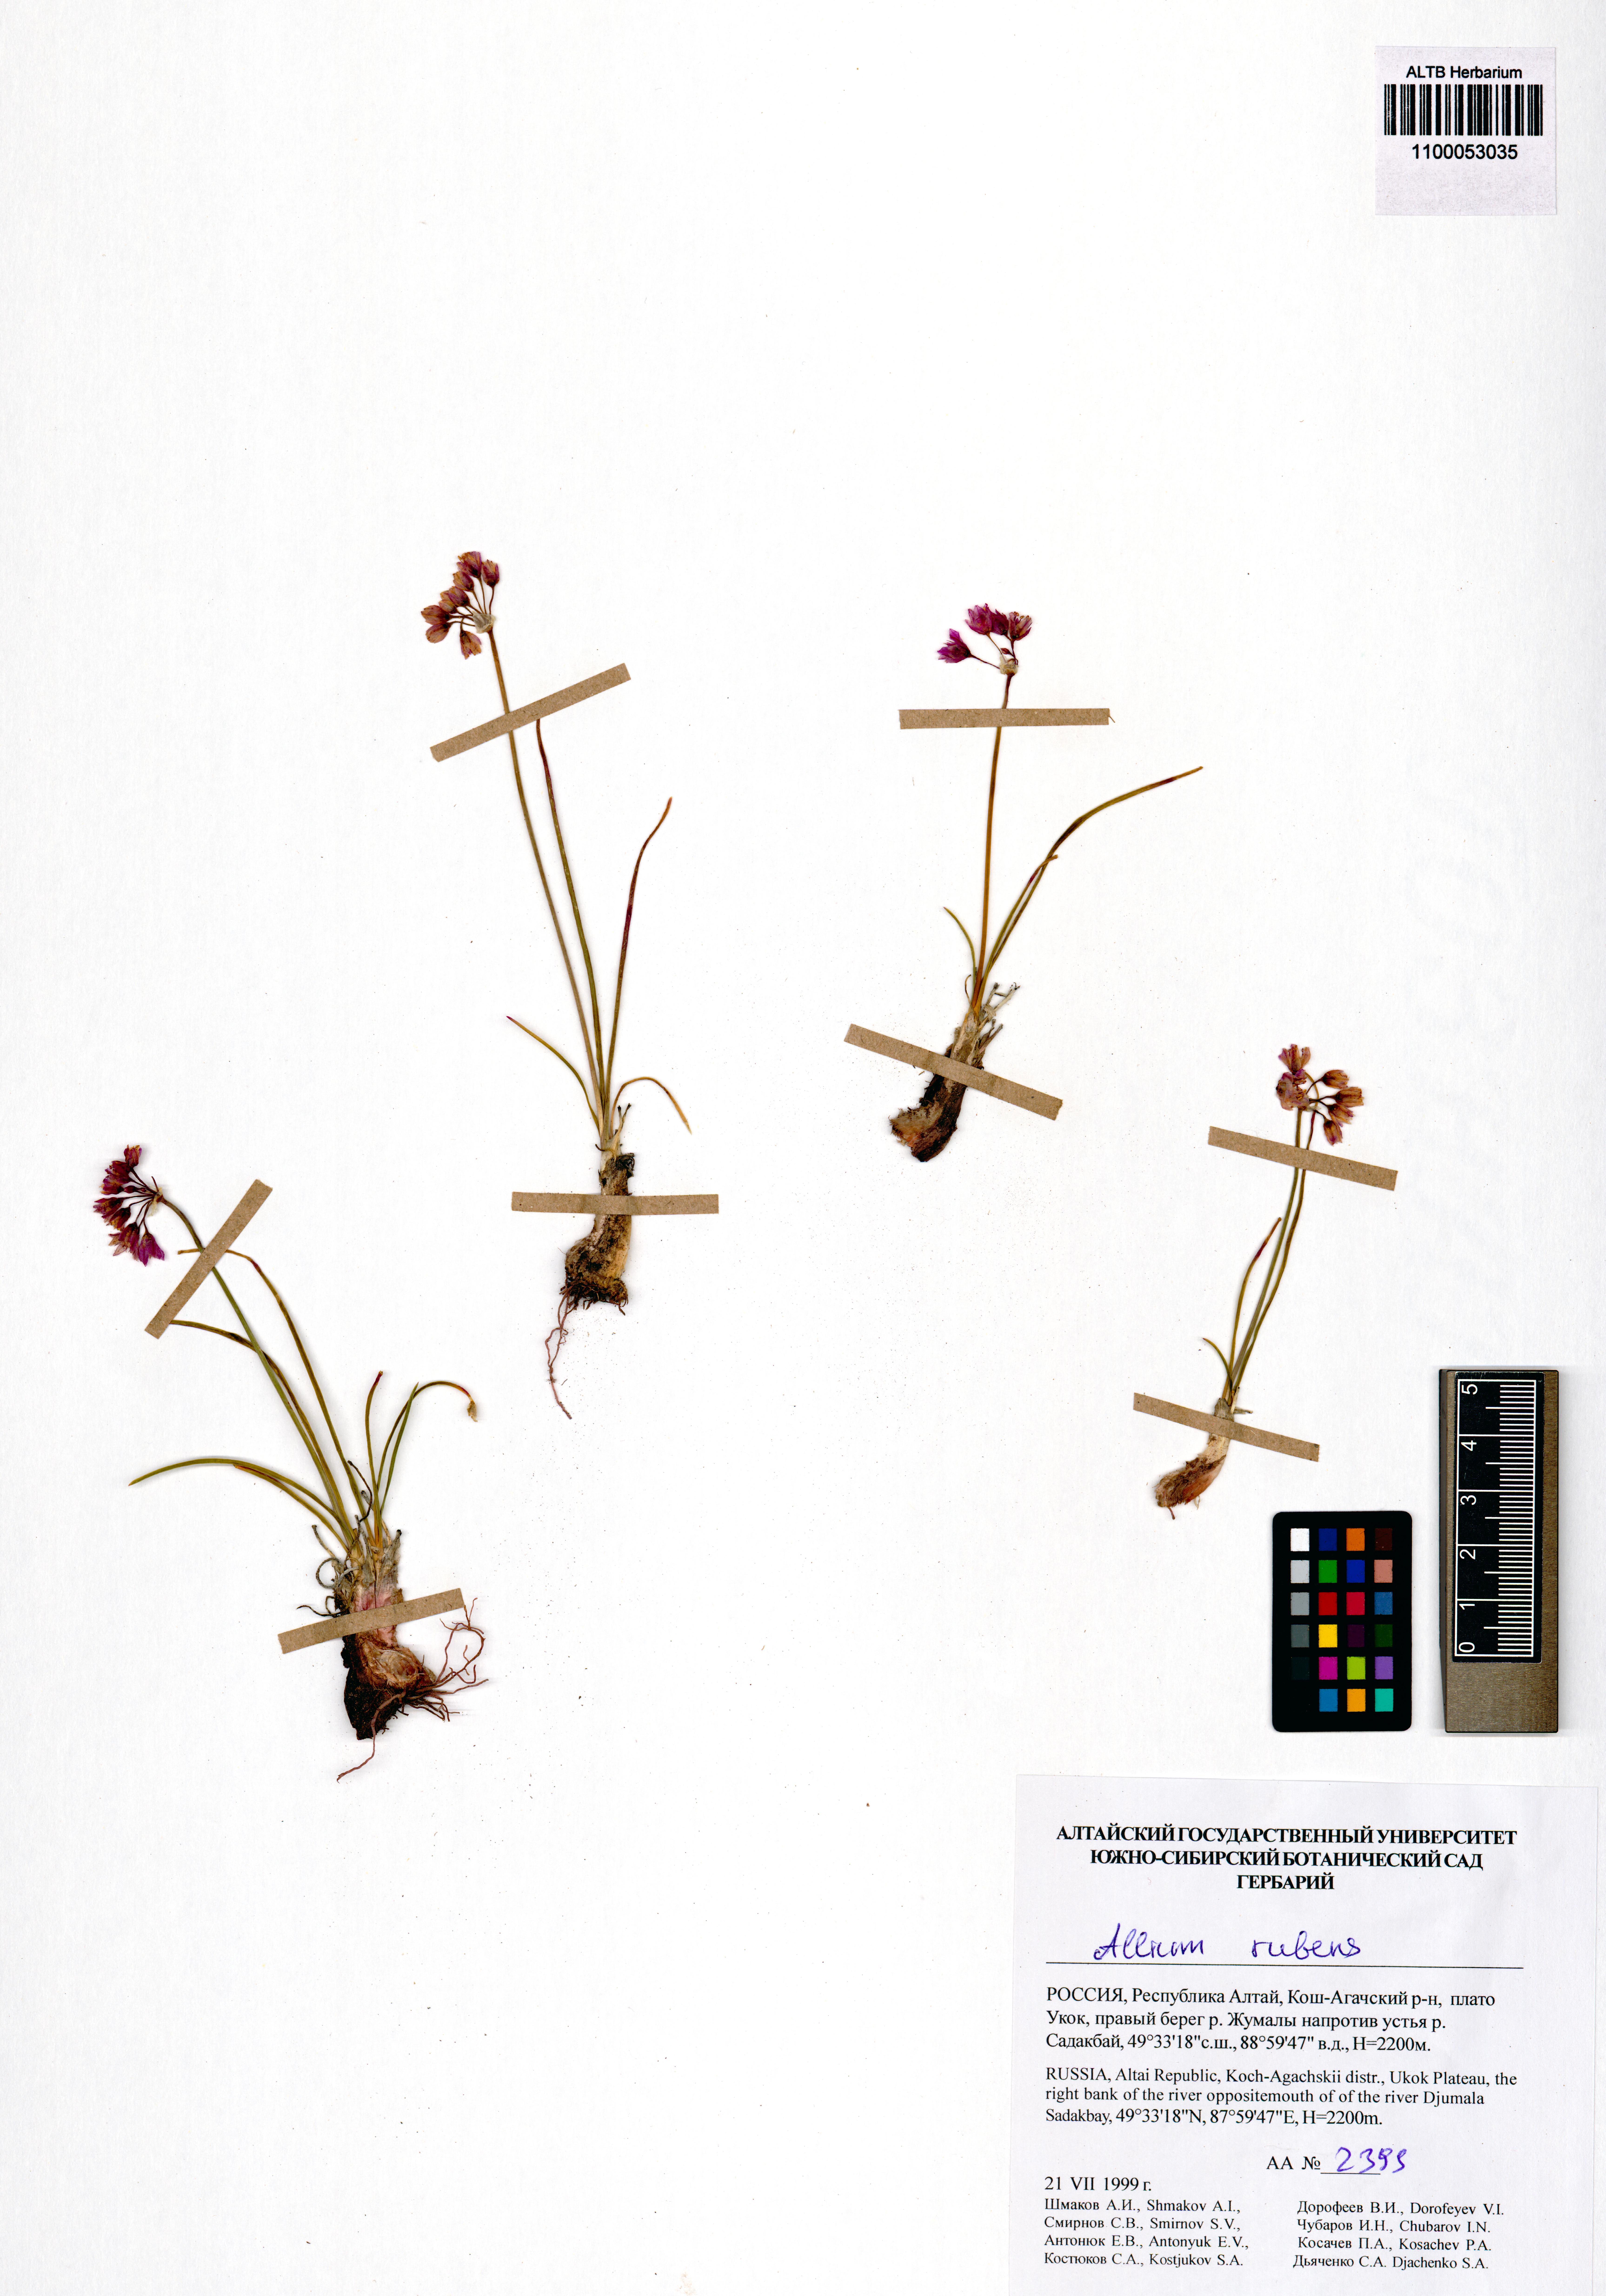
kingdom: Plantae
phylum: Tracheophyta
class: Liliopsida
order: Asparagales
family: Amaryllidaceae
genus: Allium
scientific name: Allium rubens
